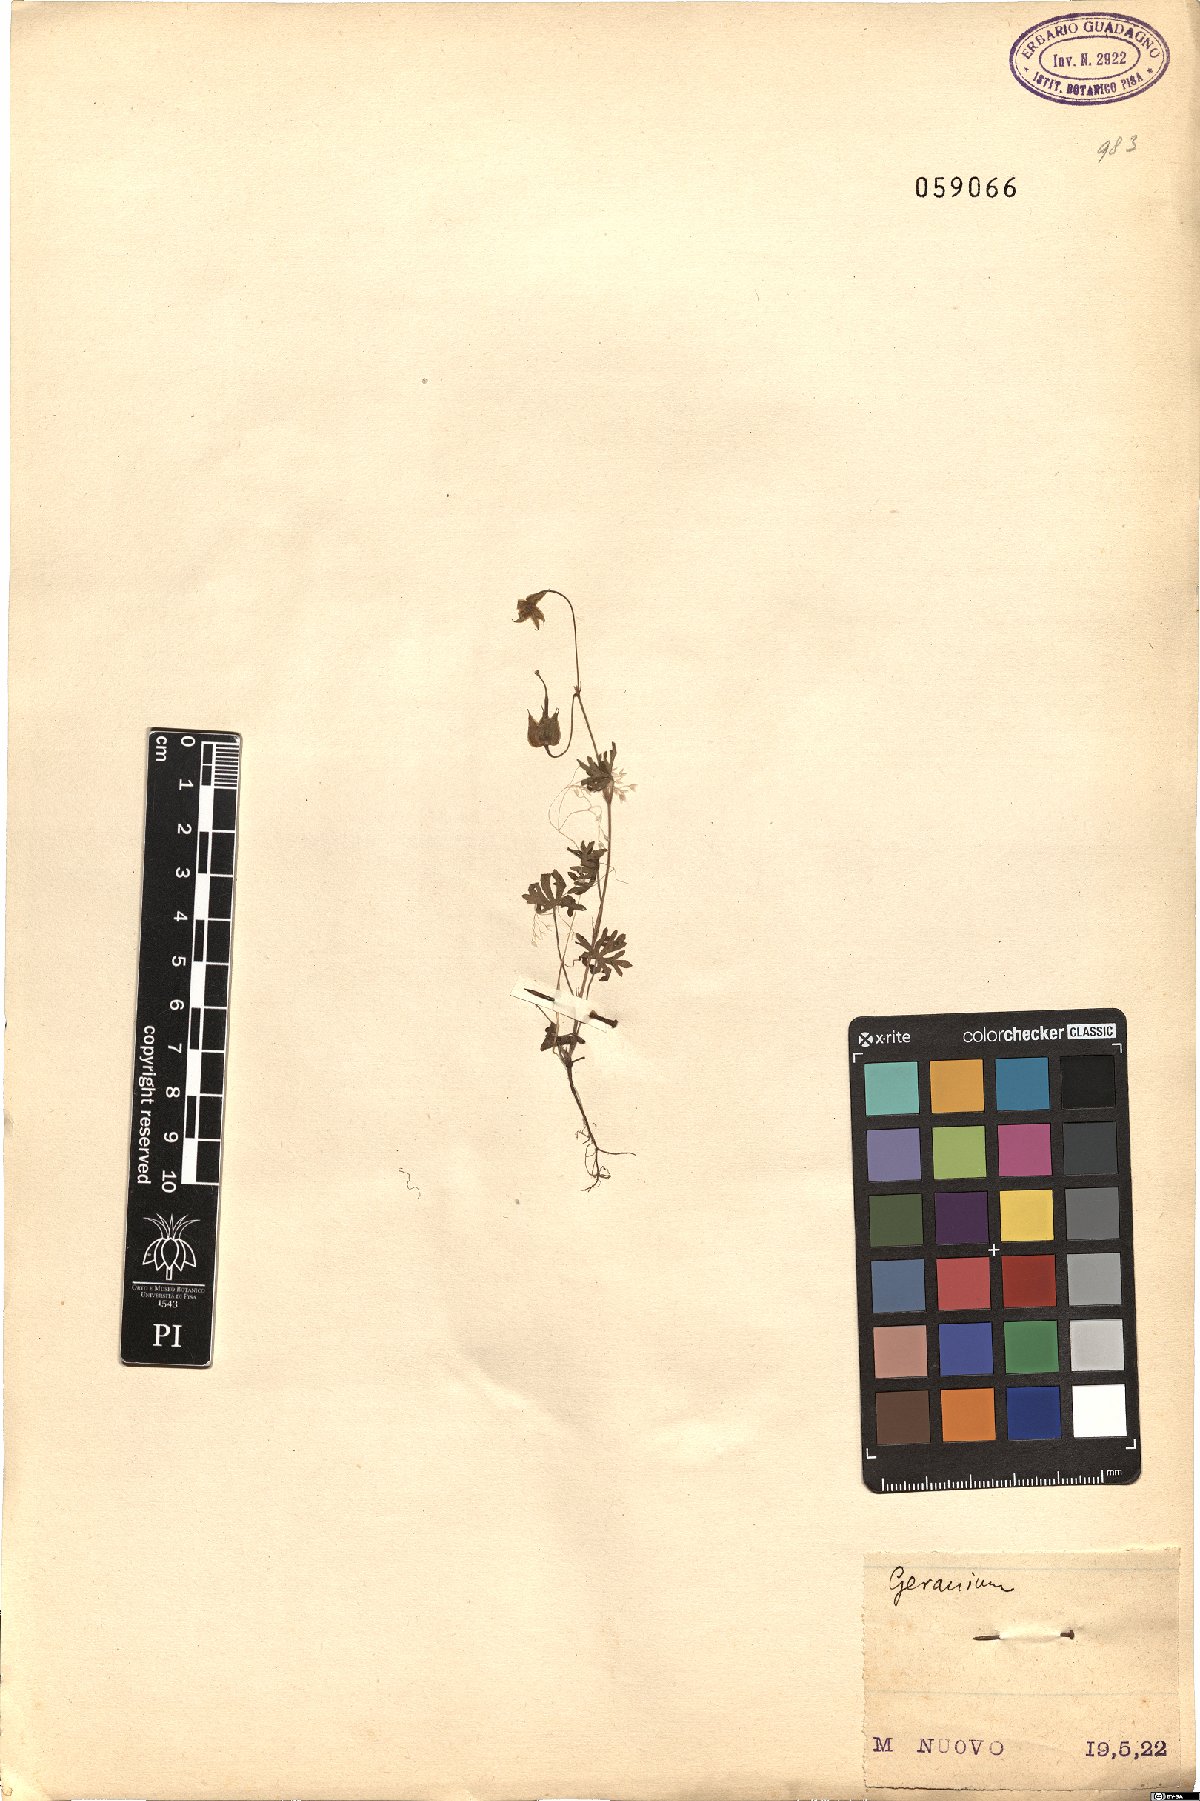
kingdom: Plantae
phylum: Tracheophyta
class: Magnoliopsida
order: Geraniales
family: Geraniaceae
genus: Geranium
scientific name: Geranium
